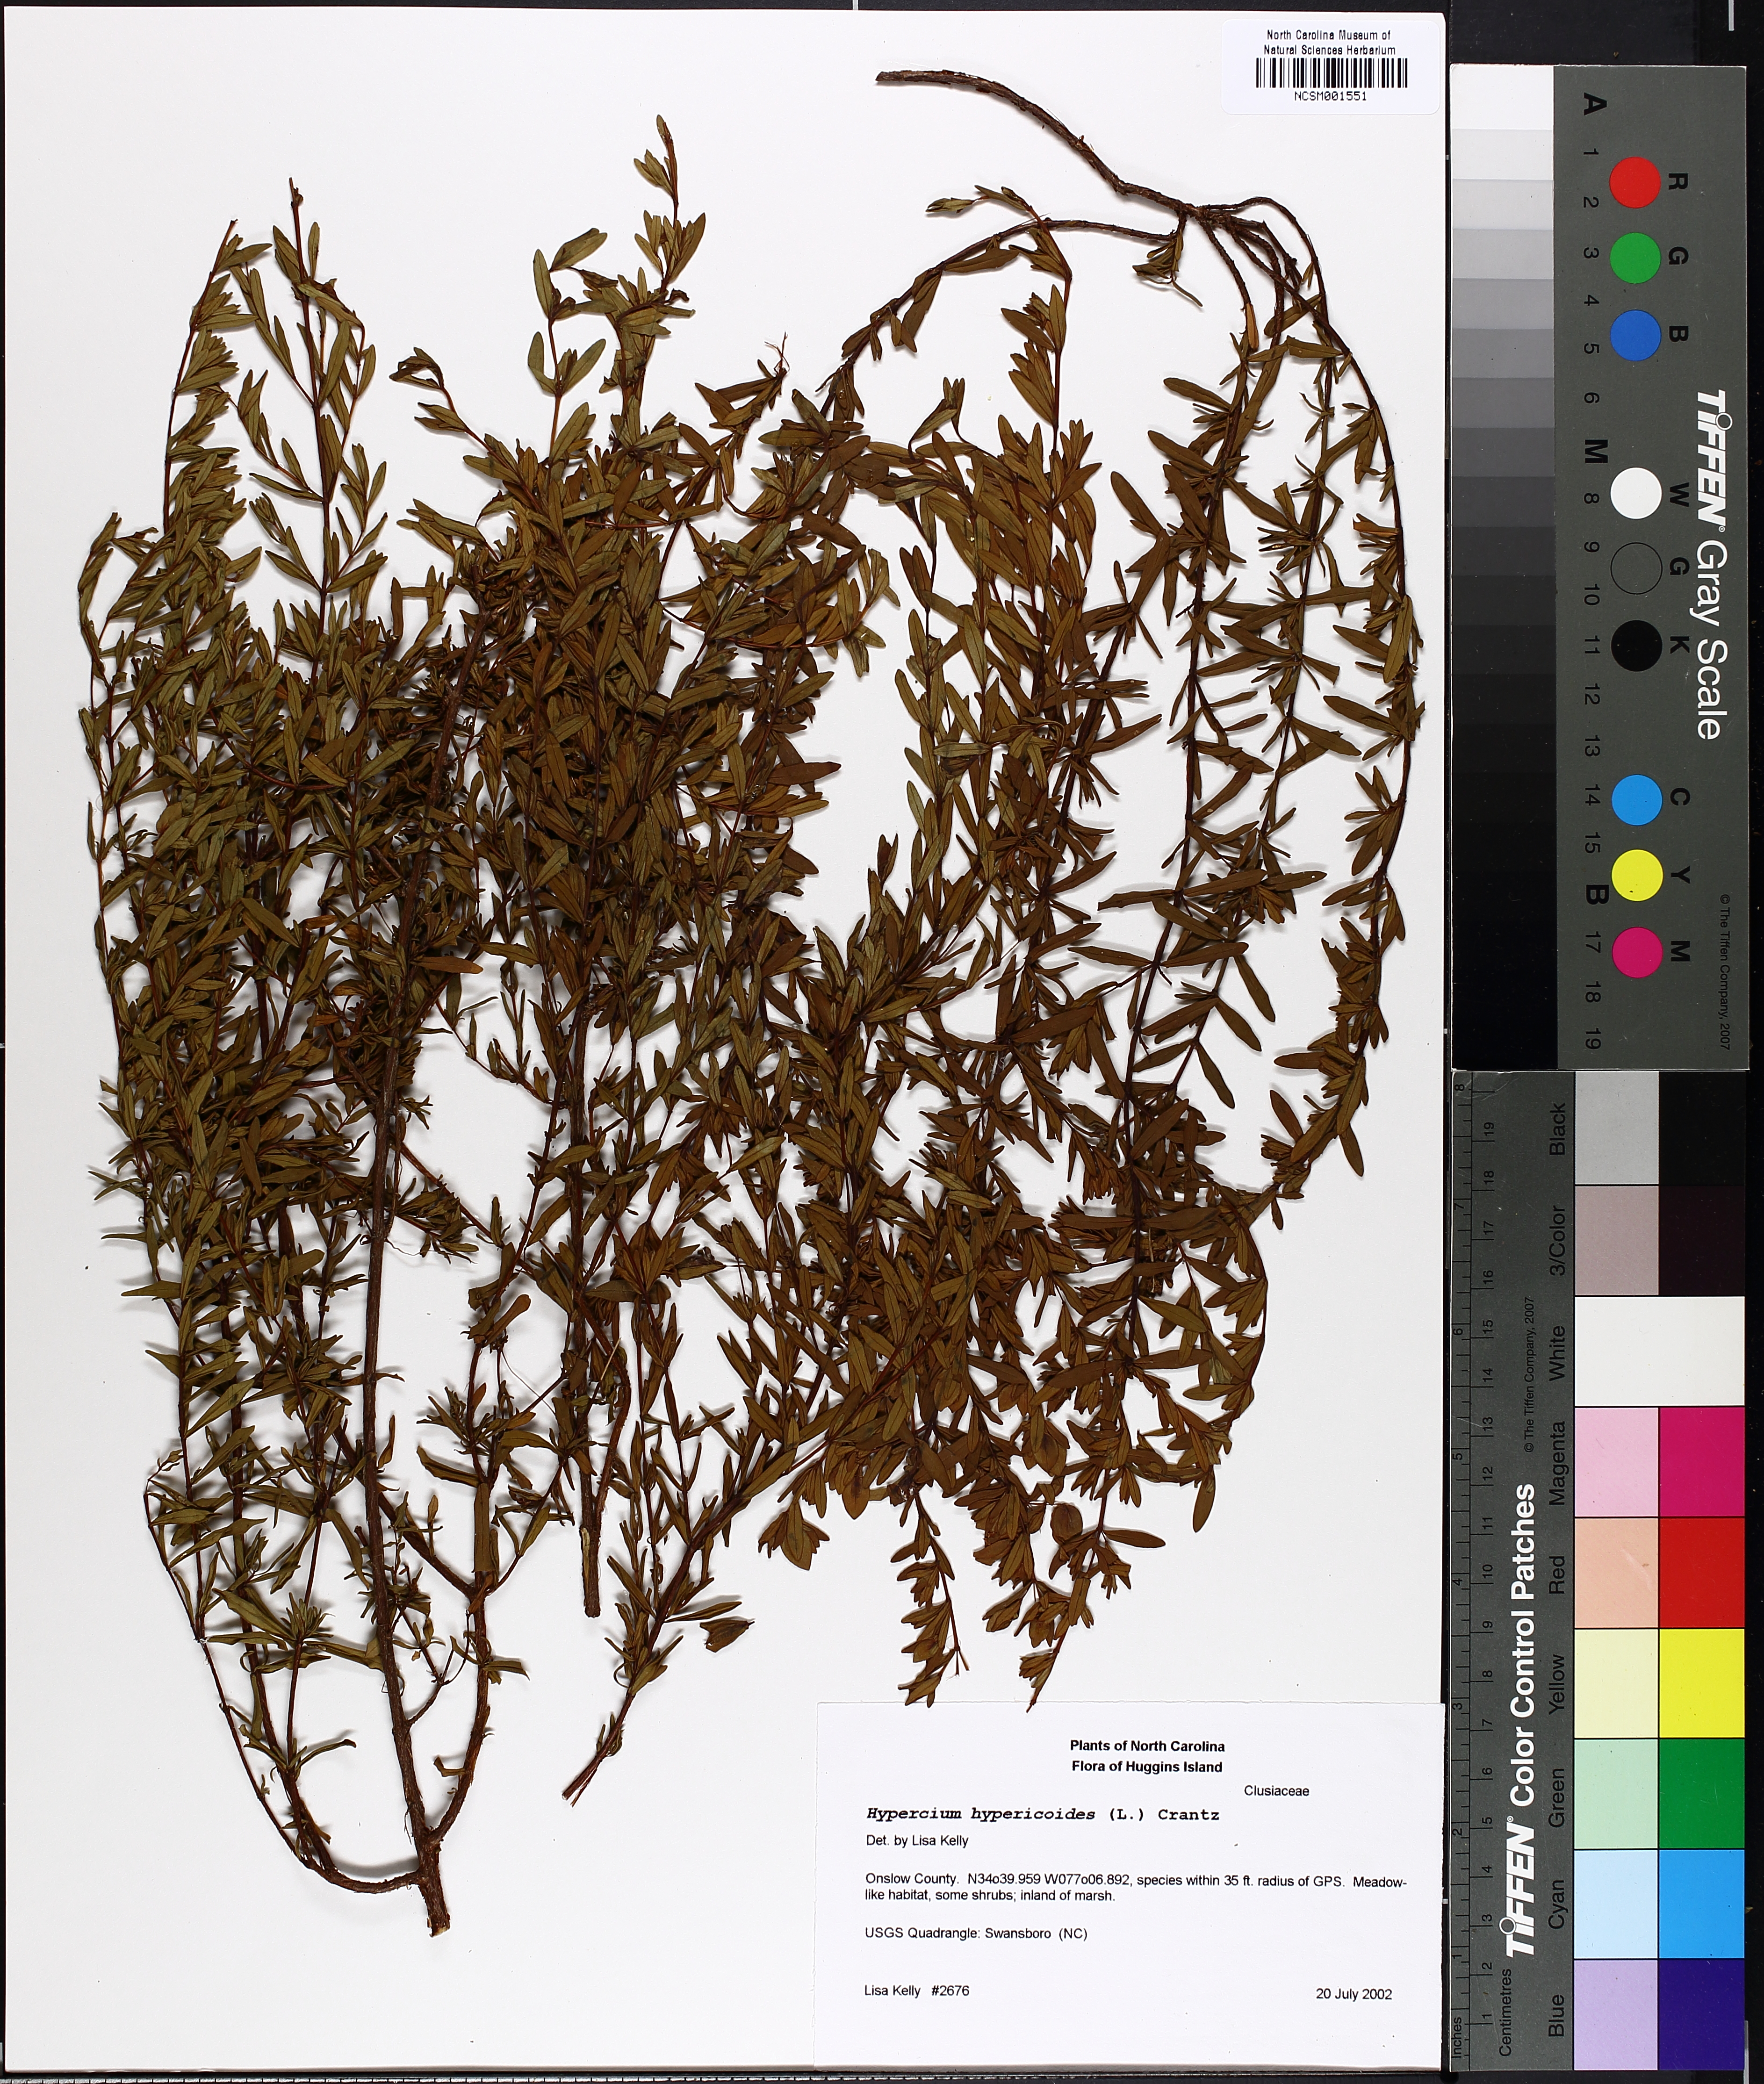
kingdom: Plantae
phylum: Tracheophyta
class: Magnoliopsida
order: Malpighiales
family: Hypericaceae
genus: Hypericum
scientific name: Hypericum hypericoides
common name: St. andrew's cross
